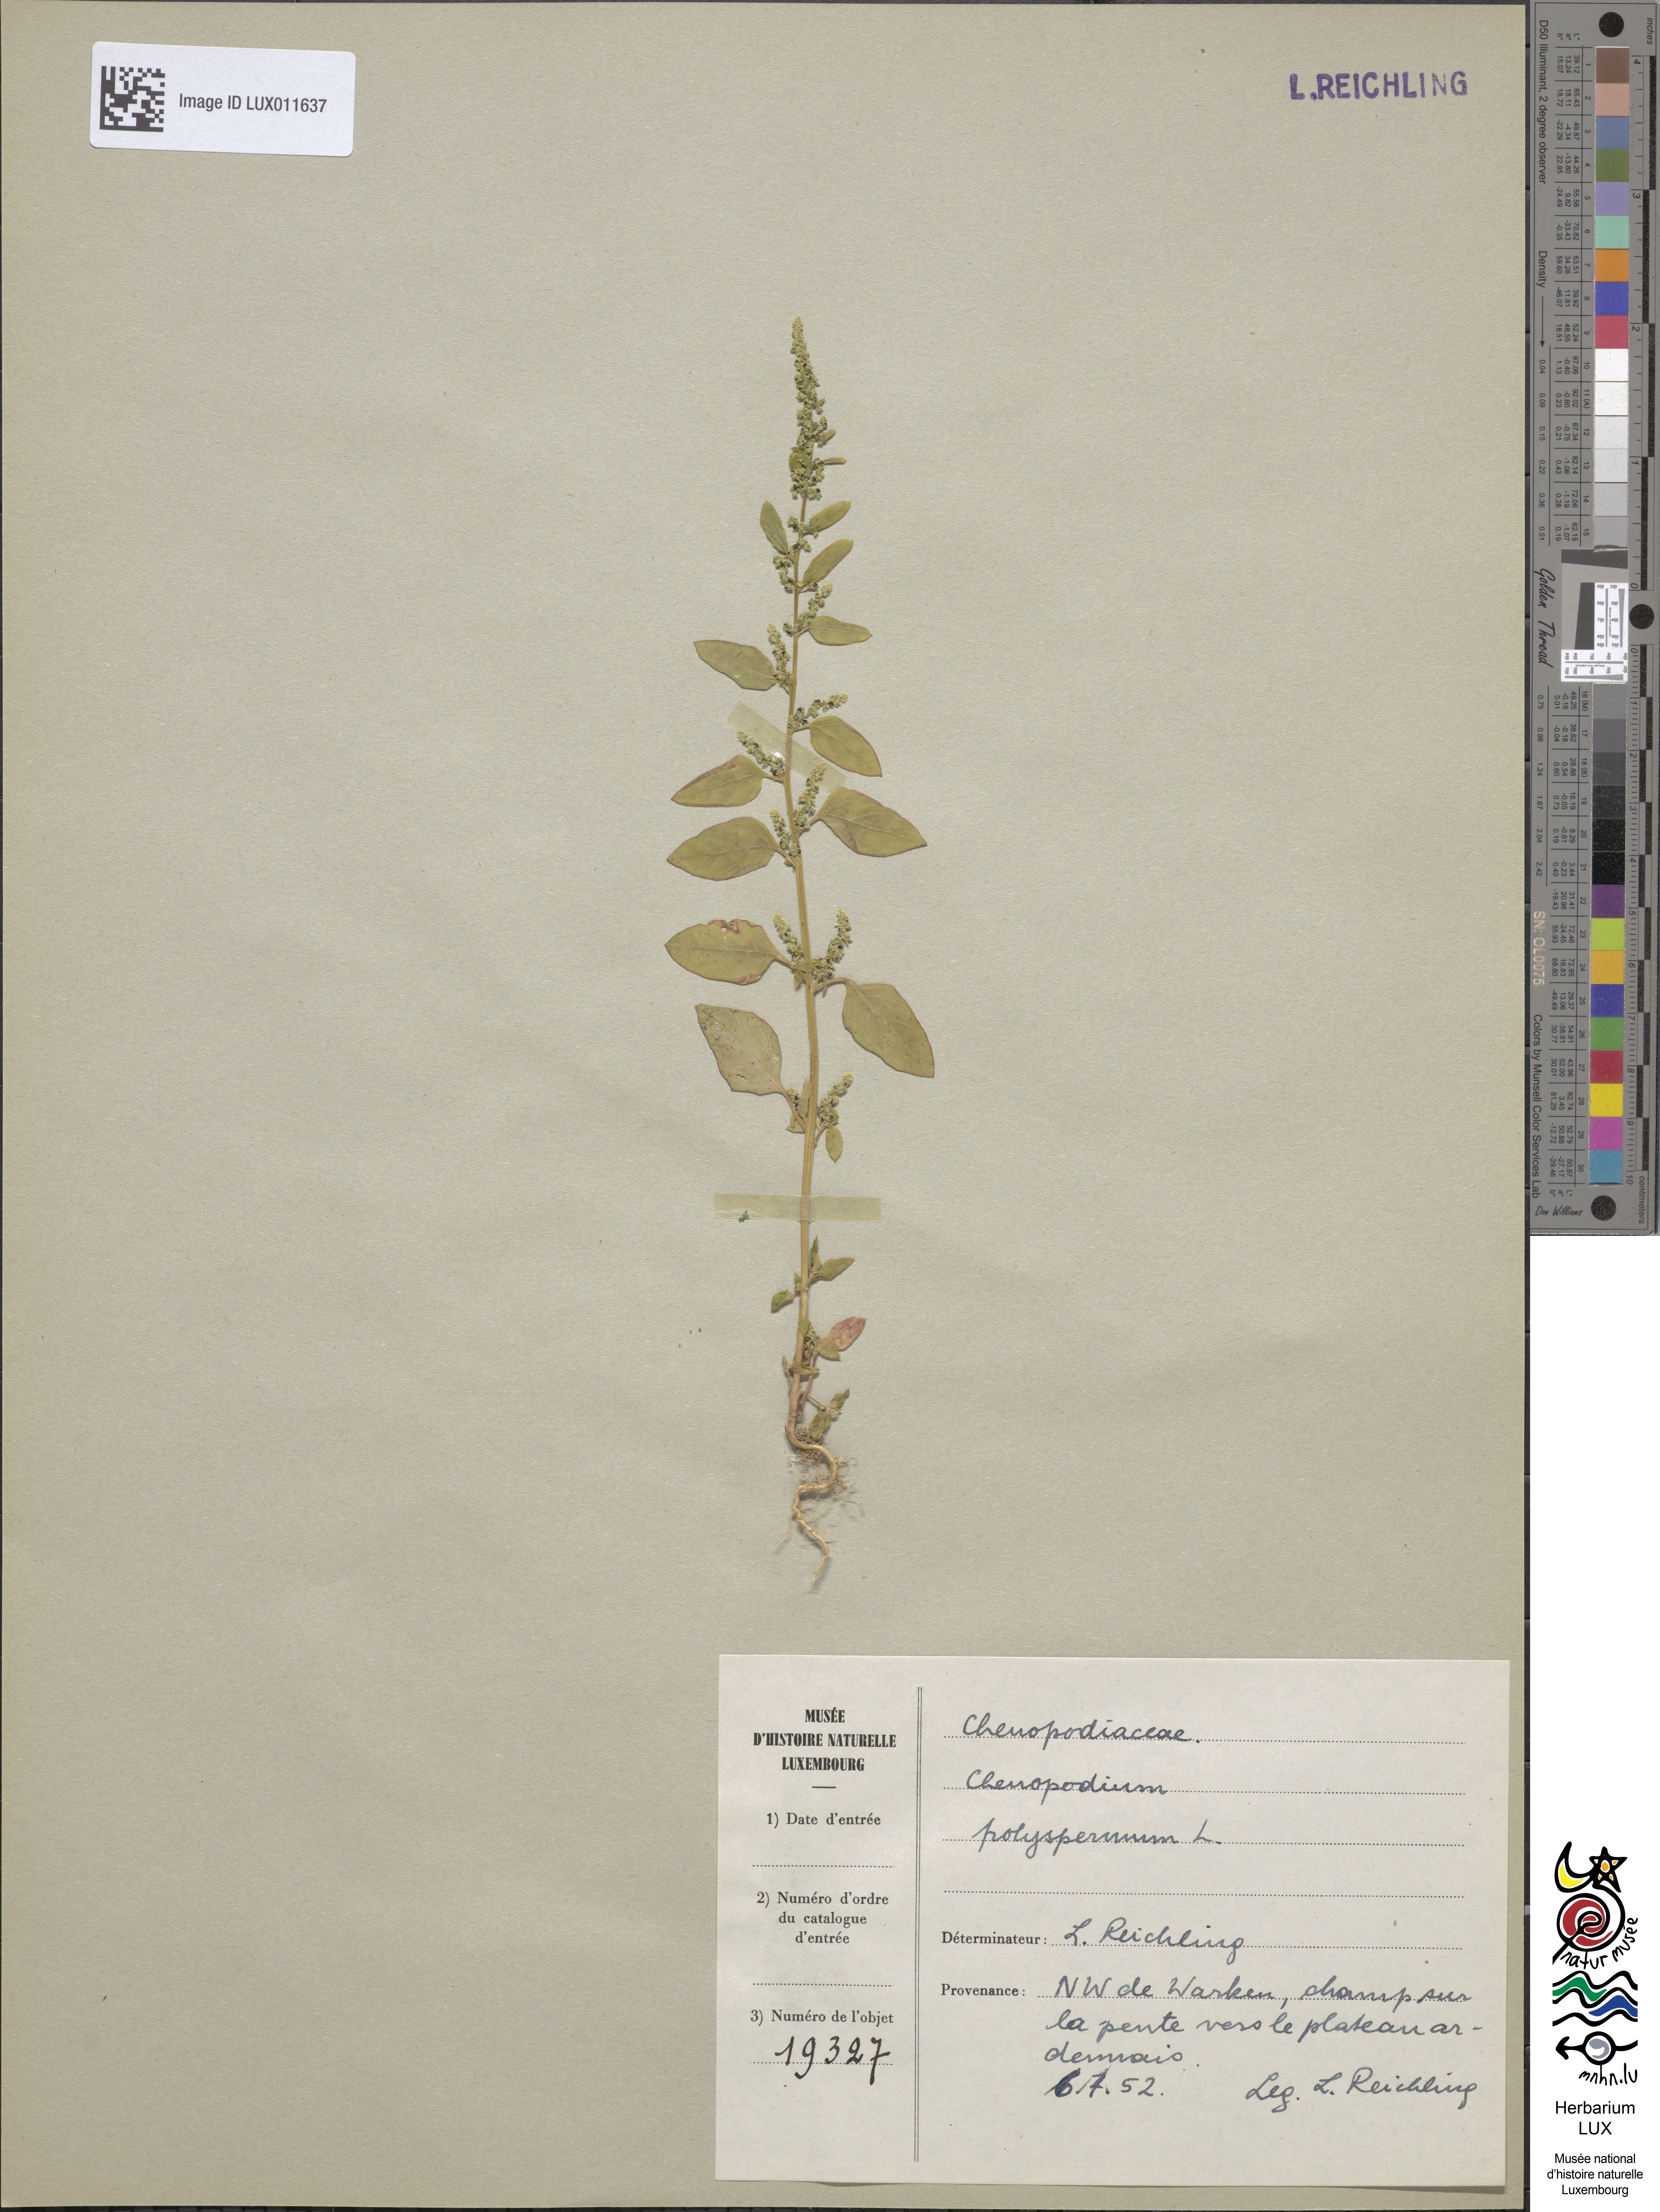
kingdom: Plantae
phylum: Tracheophyta
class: Magnoliopsida
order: Caryophyllales
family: Amaranthaceae
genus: Lipandra
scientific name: Lipandra polysperma
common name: Many-seed goosefoot
